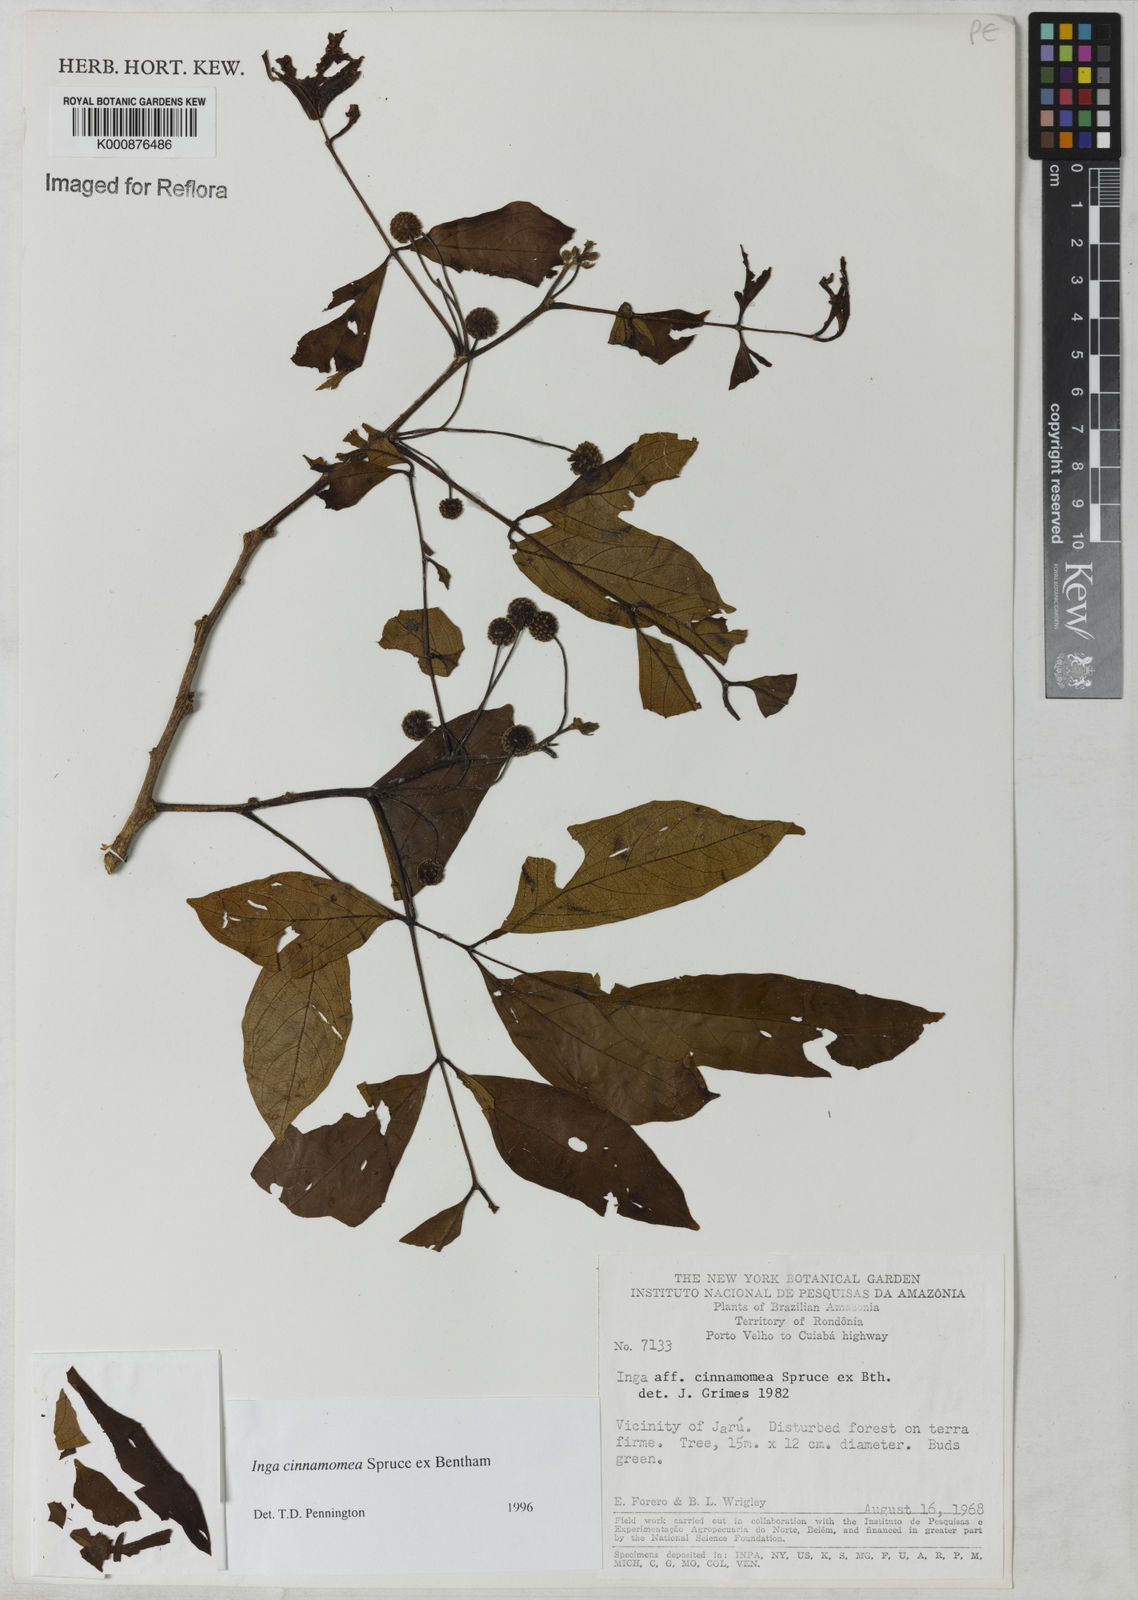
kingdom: Plantae
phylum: Tracheophyta
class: Magnoliopsida
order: Fabales
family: Fabaceae
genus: Inga
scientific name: Inga cinnamomea
